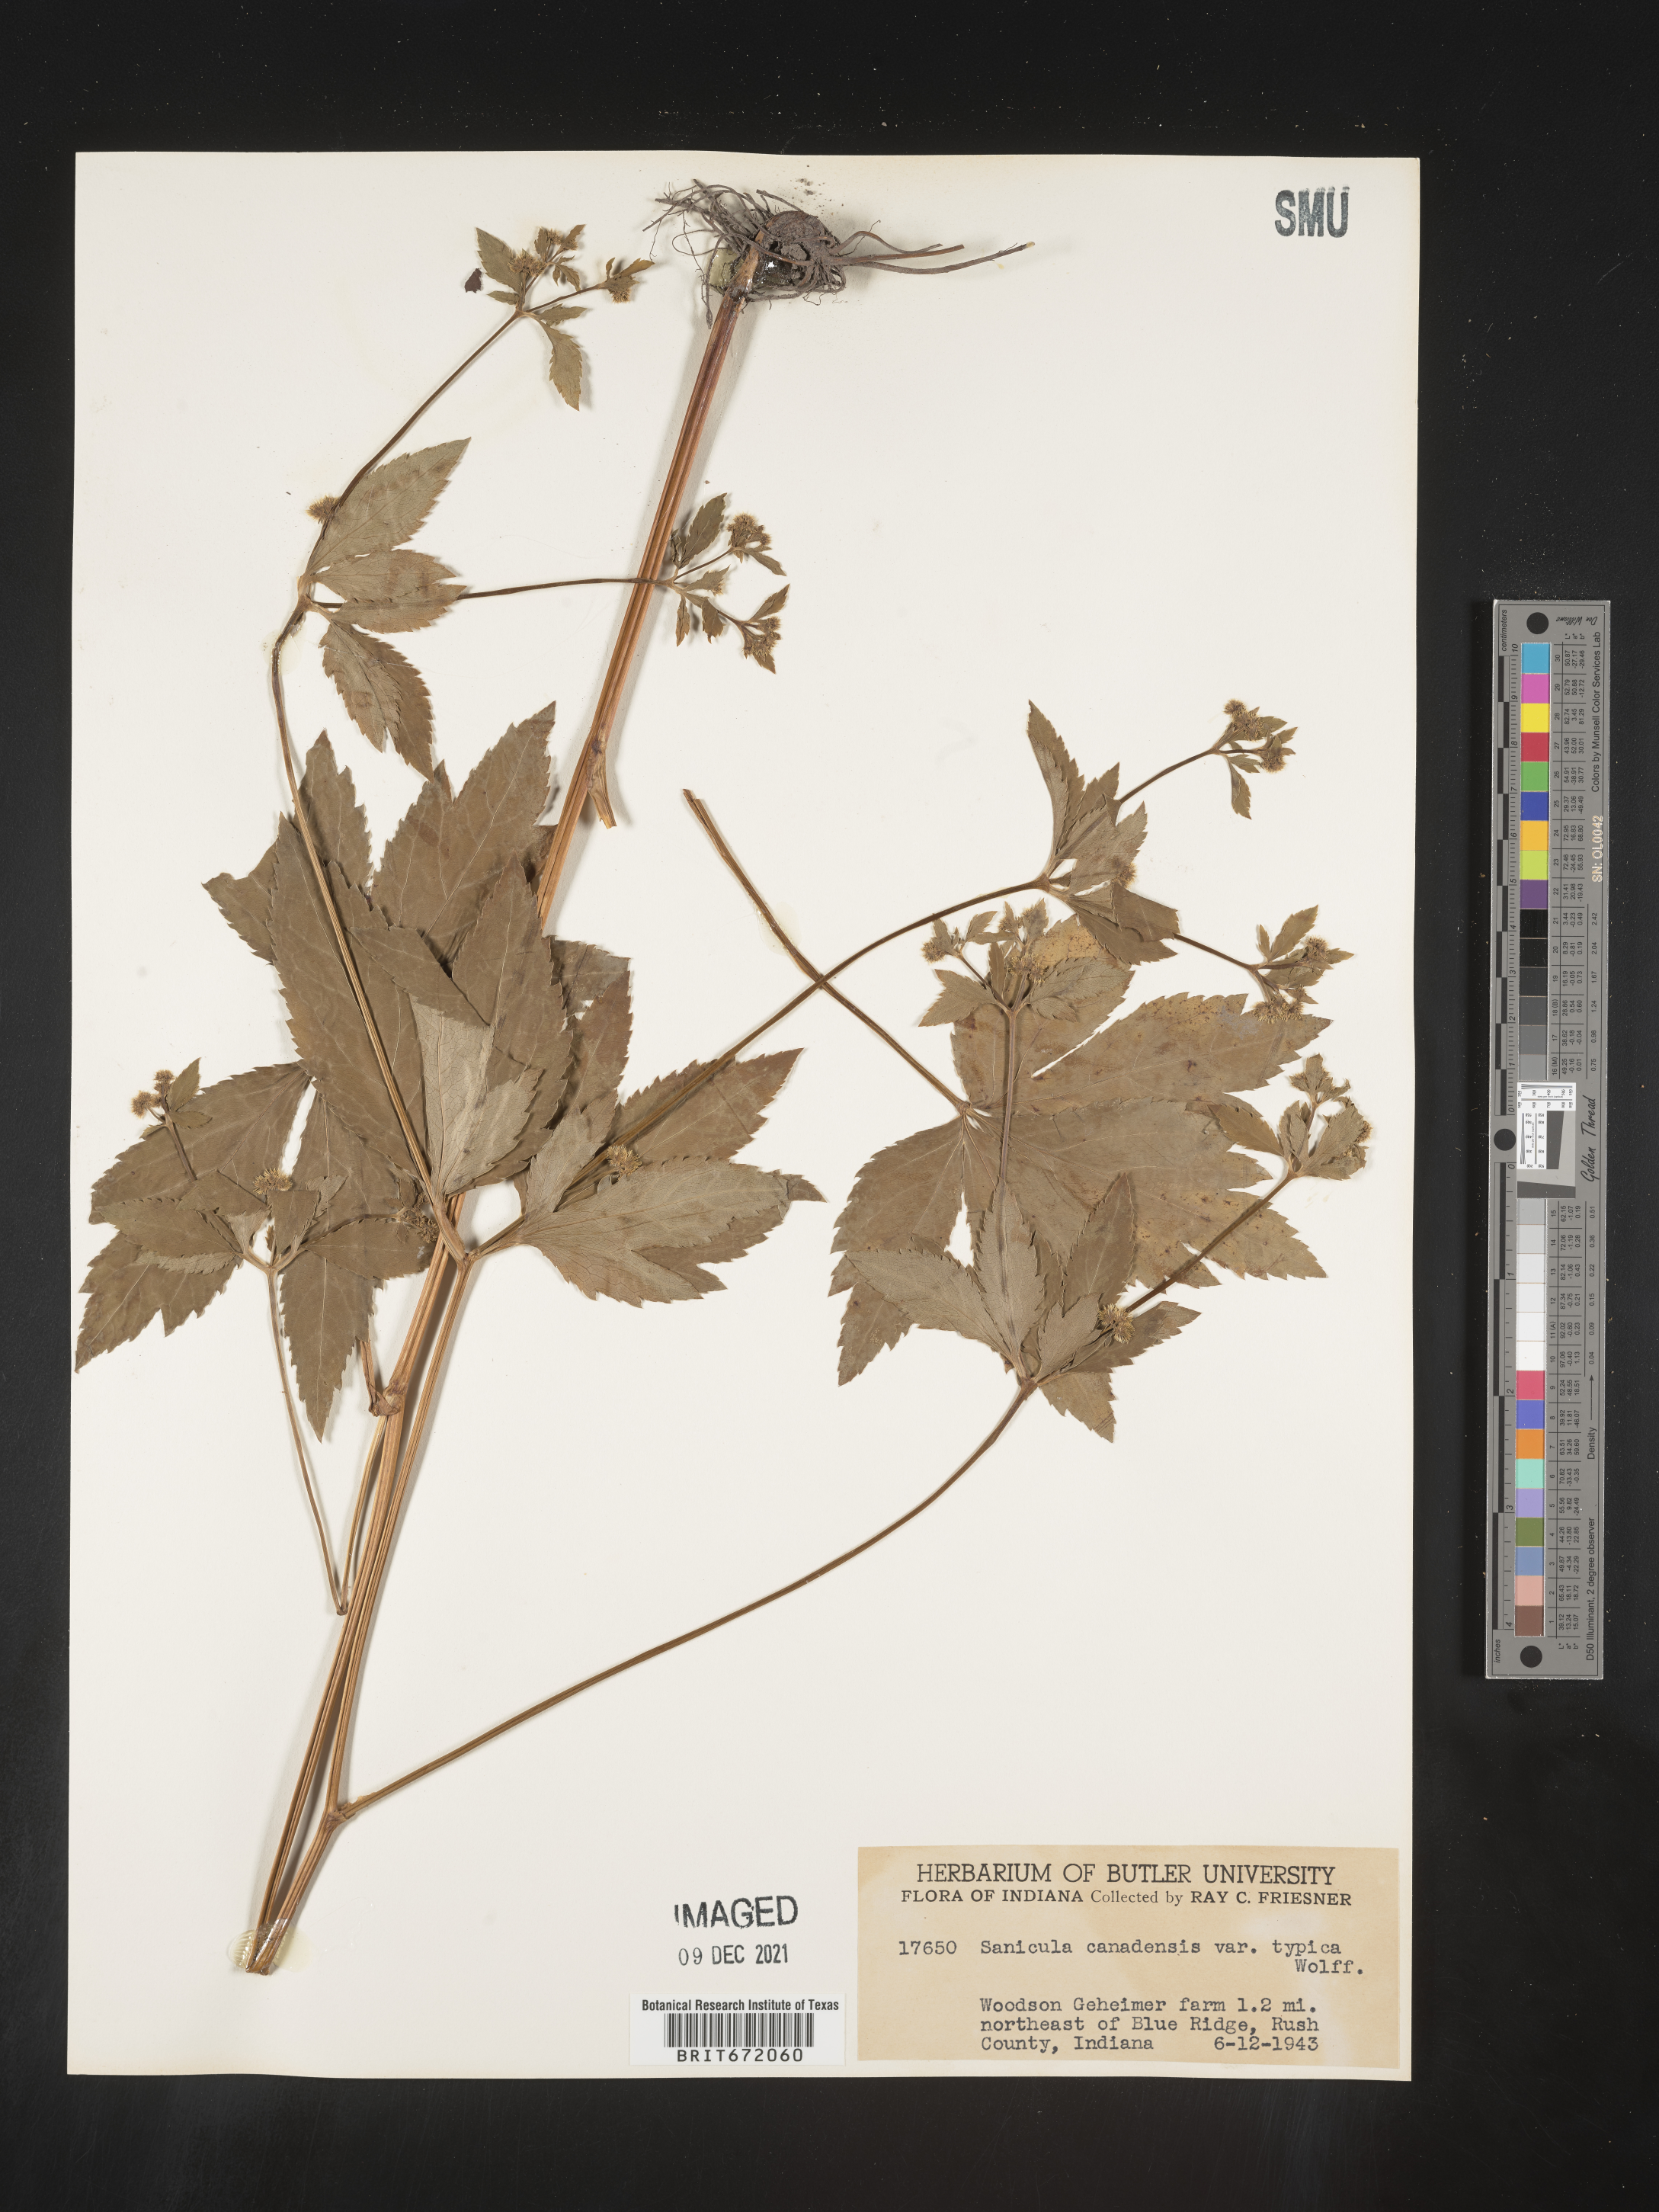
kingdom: Plantae
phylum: Tracheophyta
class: Magnoliopsida
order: Apiales
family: Apiaceae
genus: Sanicula
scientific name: Sanicula canadensis
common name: Canada sanicle
